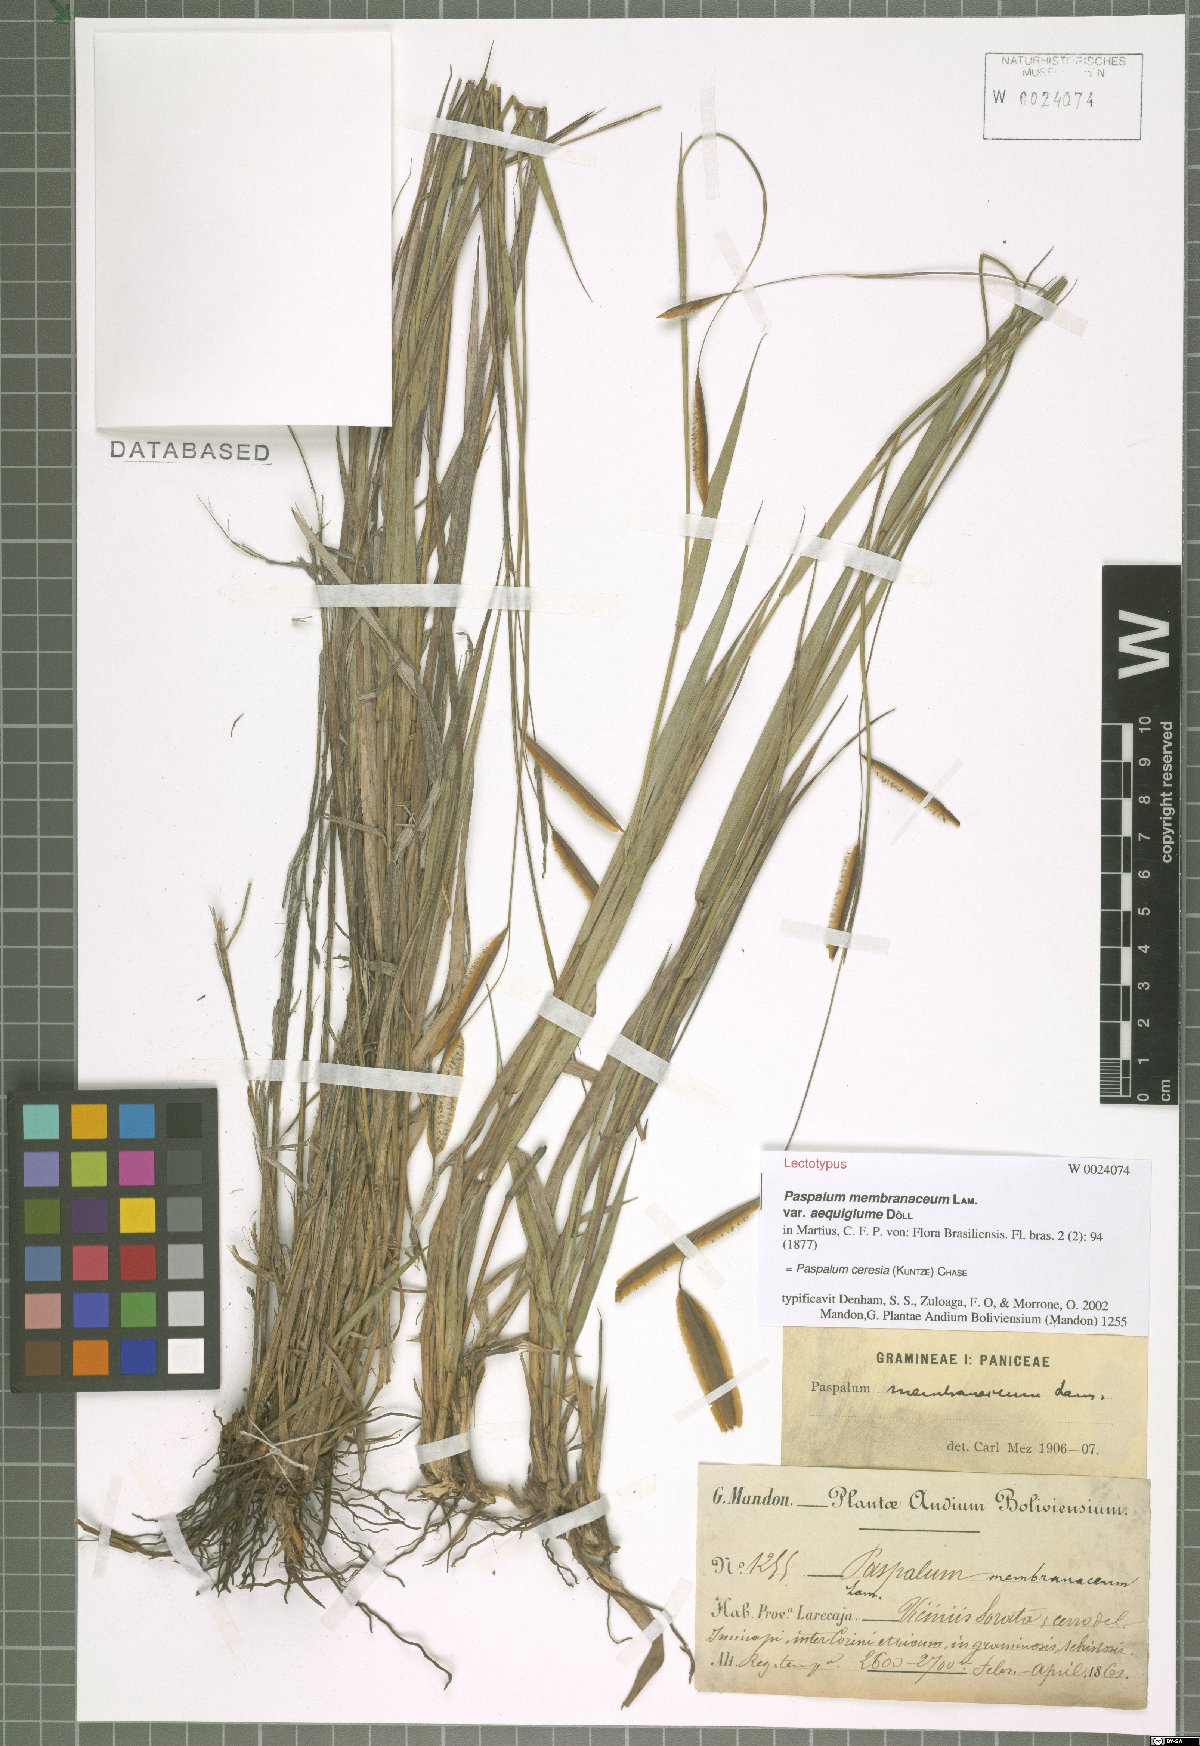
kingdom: Plantae
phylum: Tracheophyta
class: Liliopsida
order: Poales
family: Poaceae
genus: Paspalum
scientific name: Paspalum ceresia
